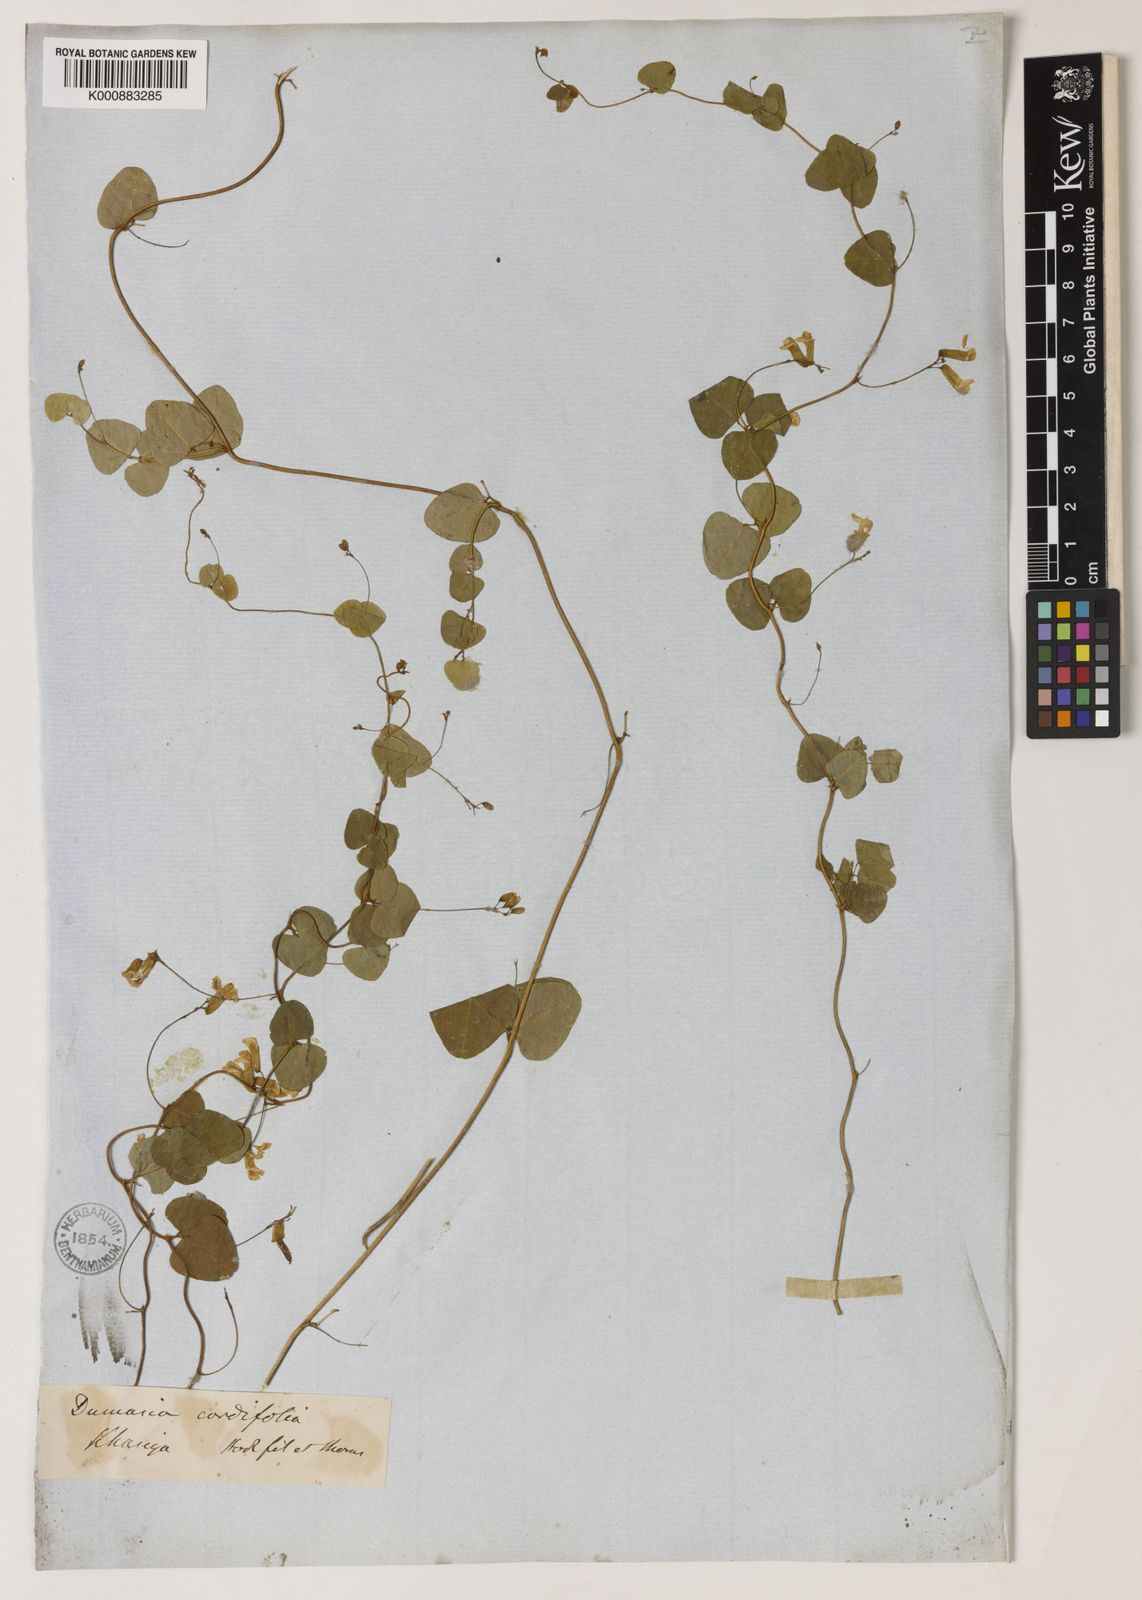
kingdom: Plantae
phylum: Tracheophyta
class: Magnoliopsida
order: Fabales
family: Fabaceae
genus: Dumasia
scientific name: Dumasia cordifolia
